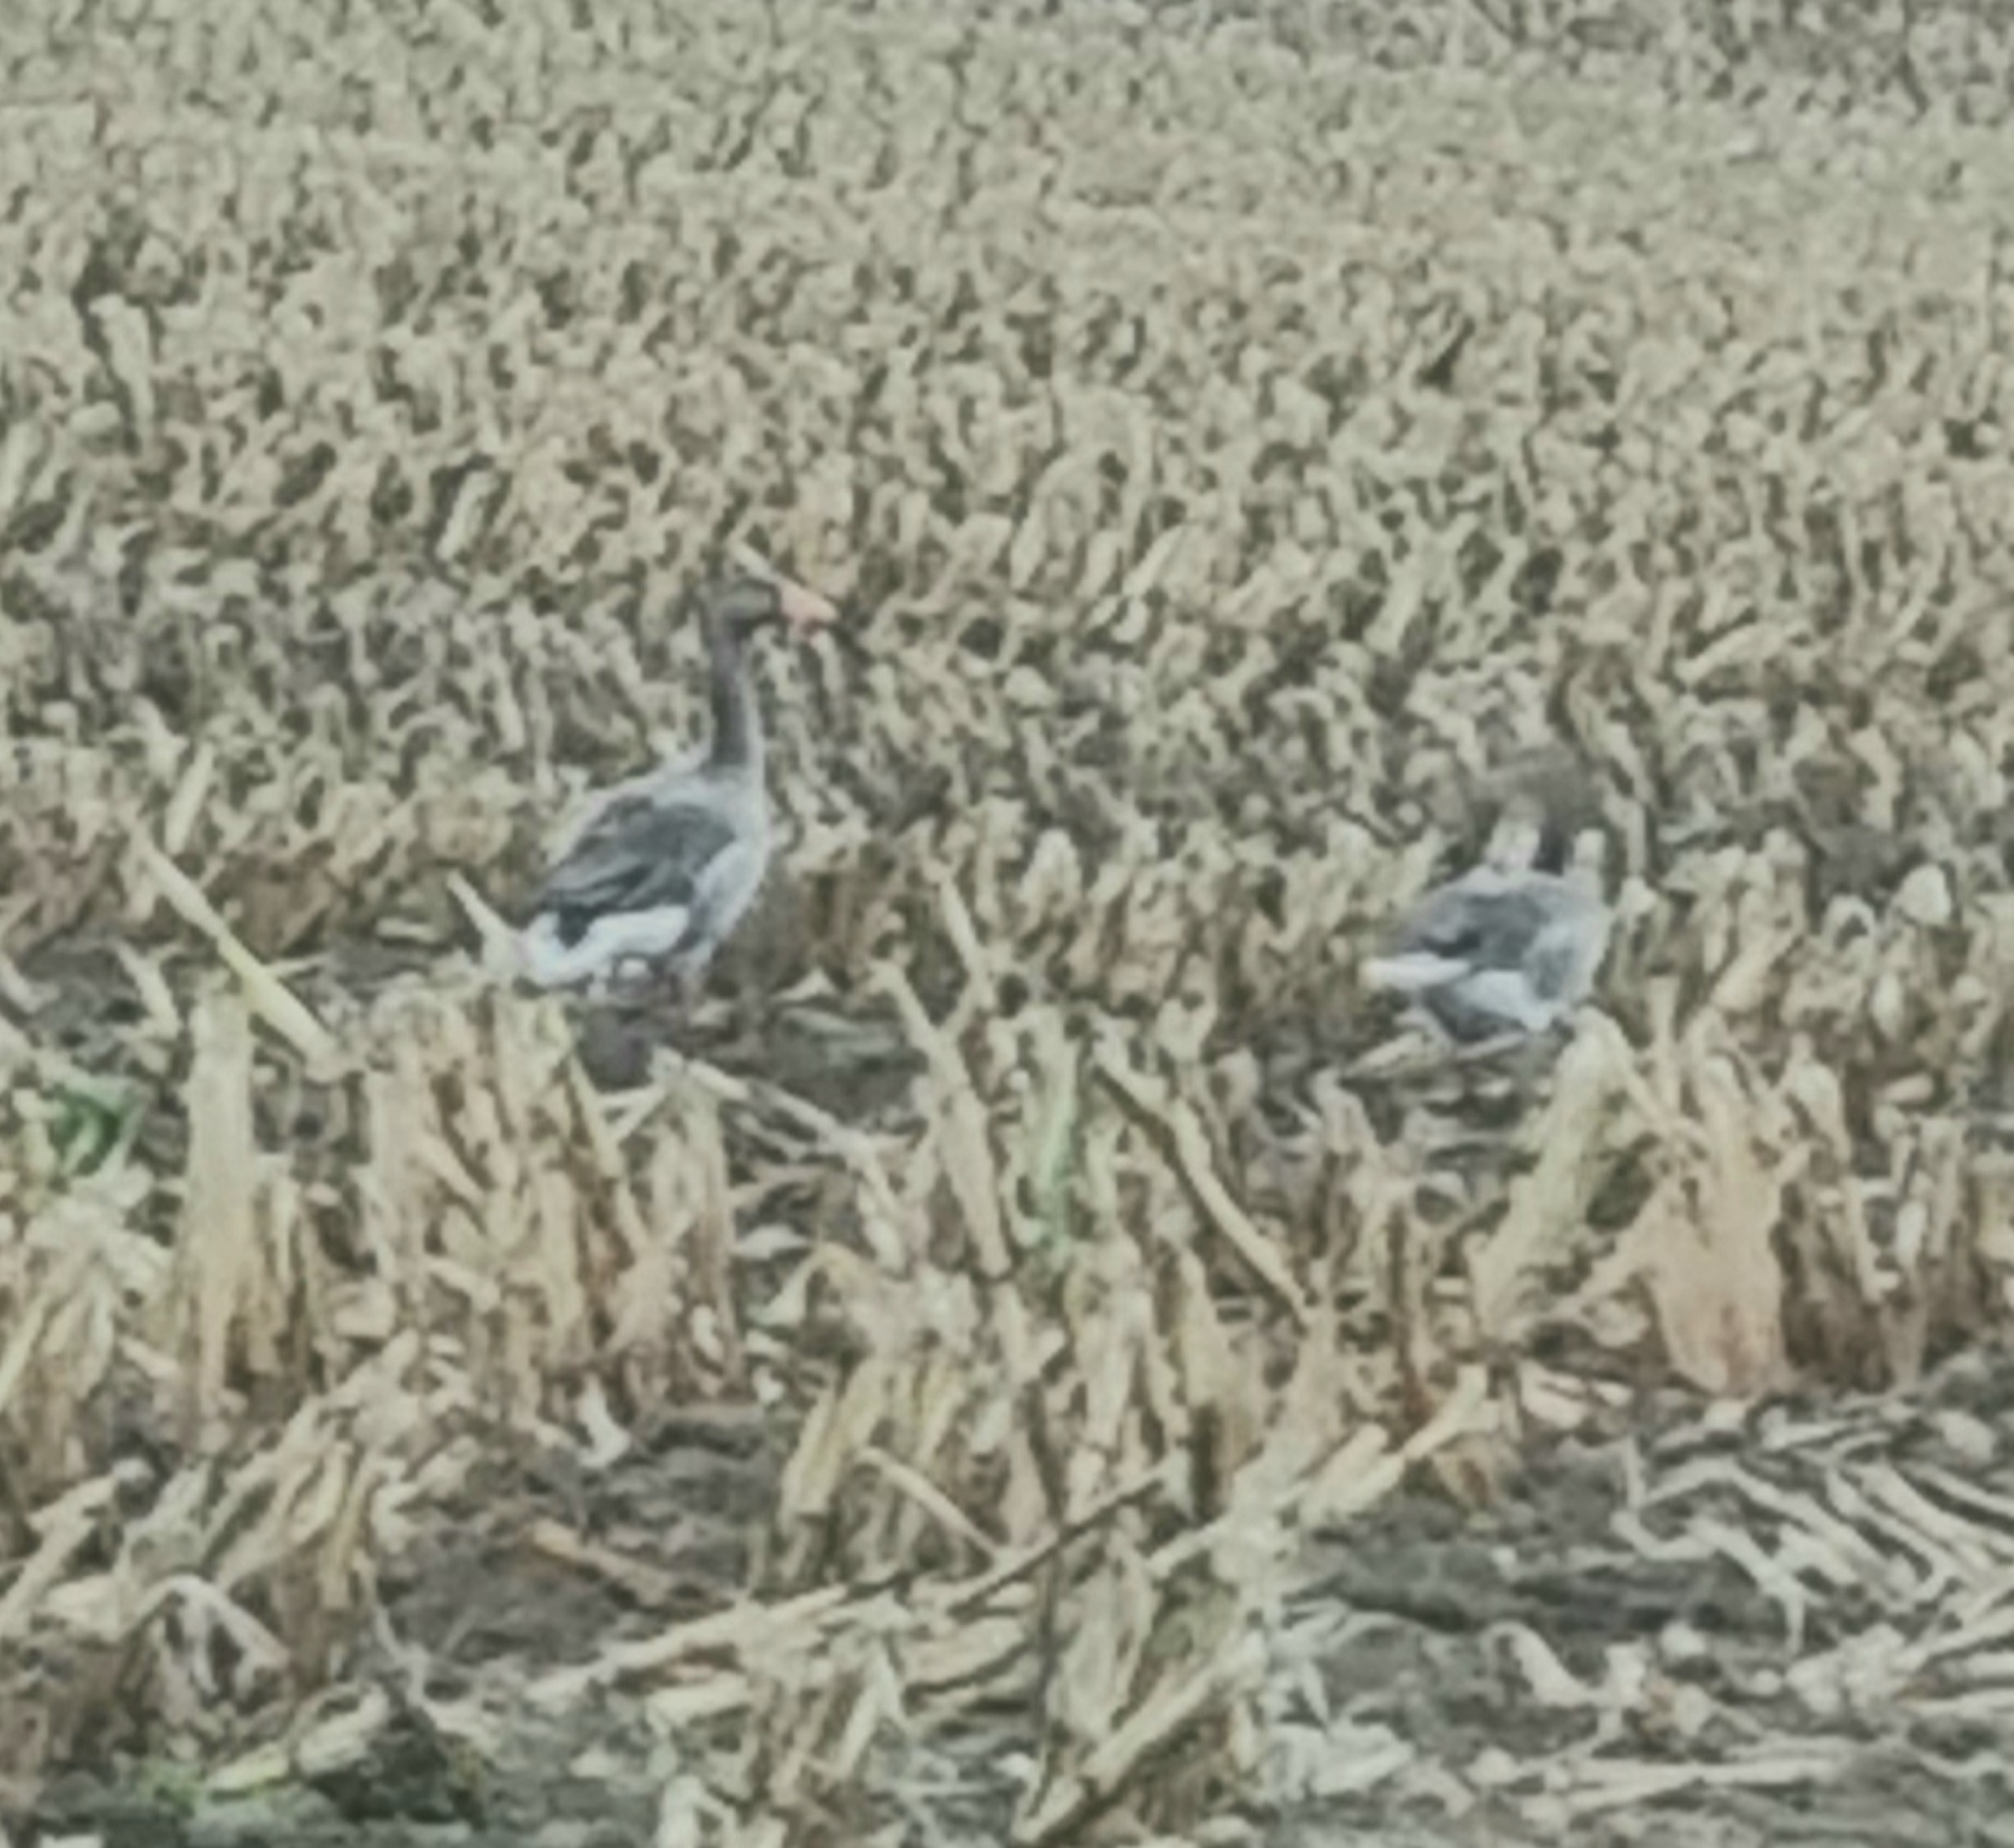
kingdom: Animalia
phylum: Chordata
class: Aves
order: Anseriformes
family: Anatidae
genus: Anser
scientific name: Anser anser
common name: Grågås
